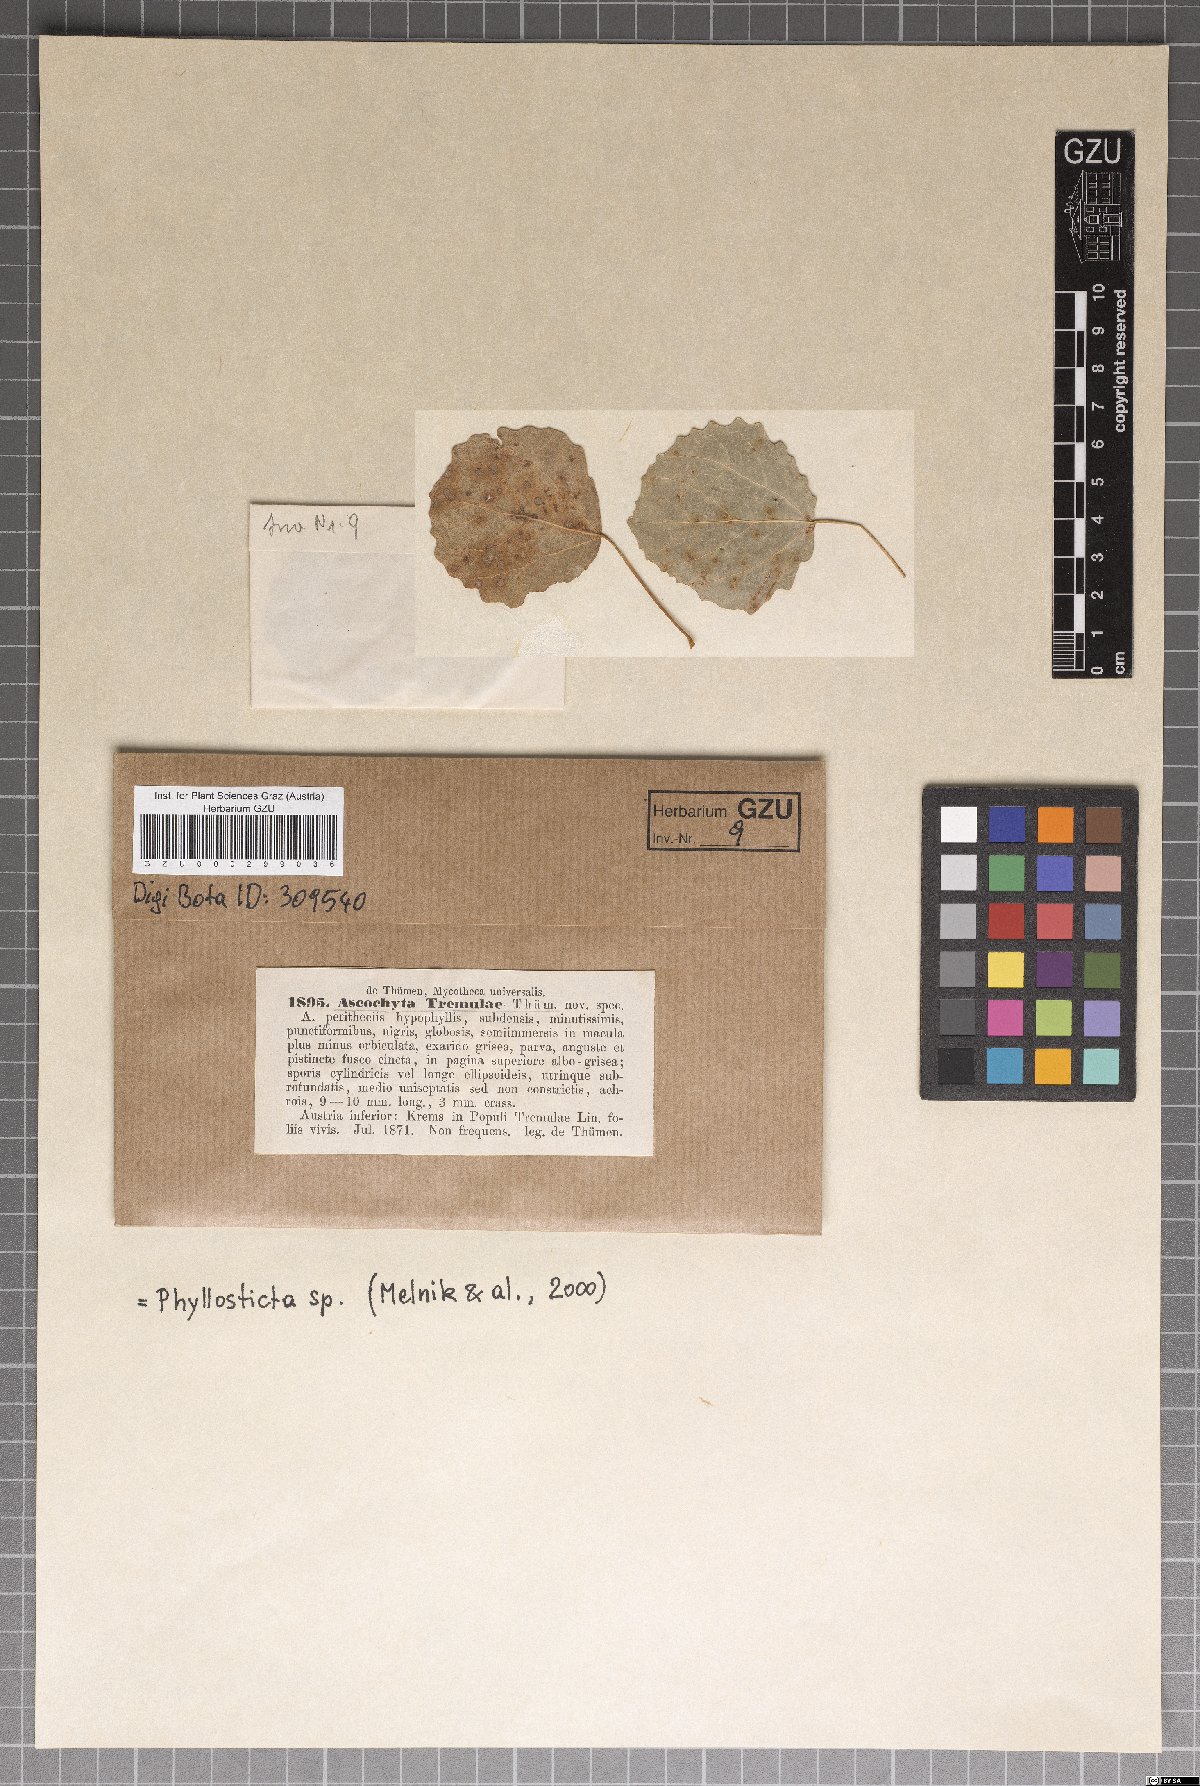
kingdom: Fungi
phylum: Ascomycota
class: Dothideomycetes
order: Pleosporales
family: Didymellaceae
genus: Ascochyta
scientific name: Ascochyta
